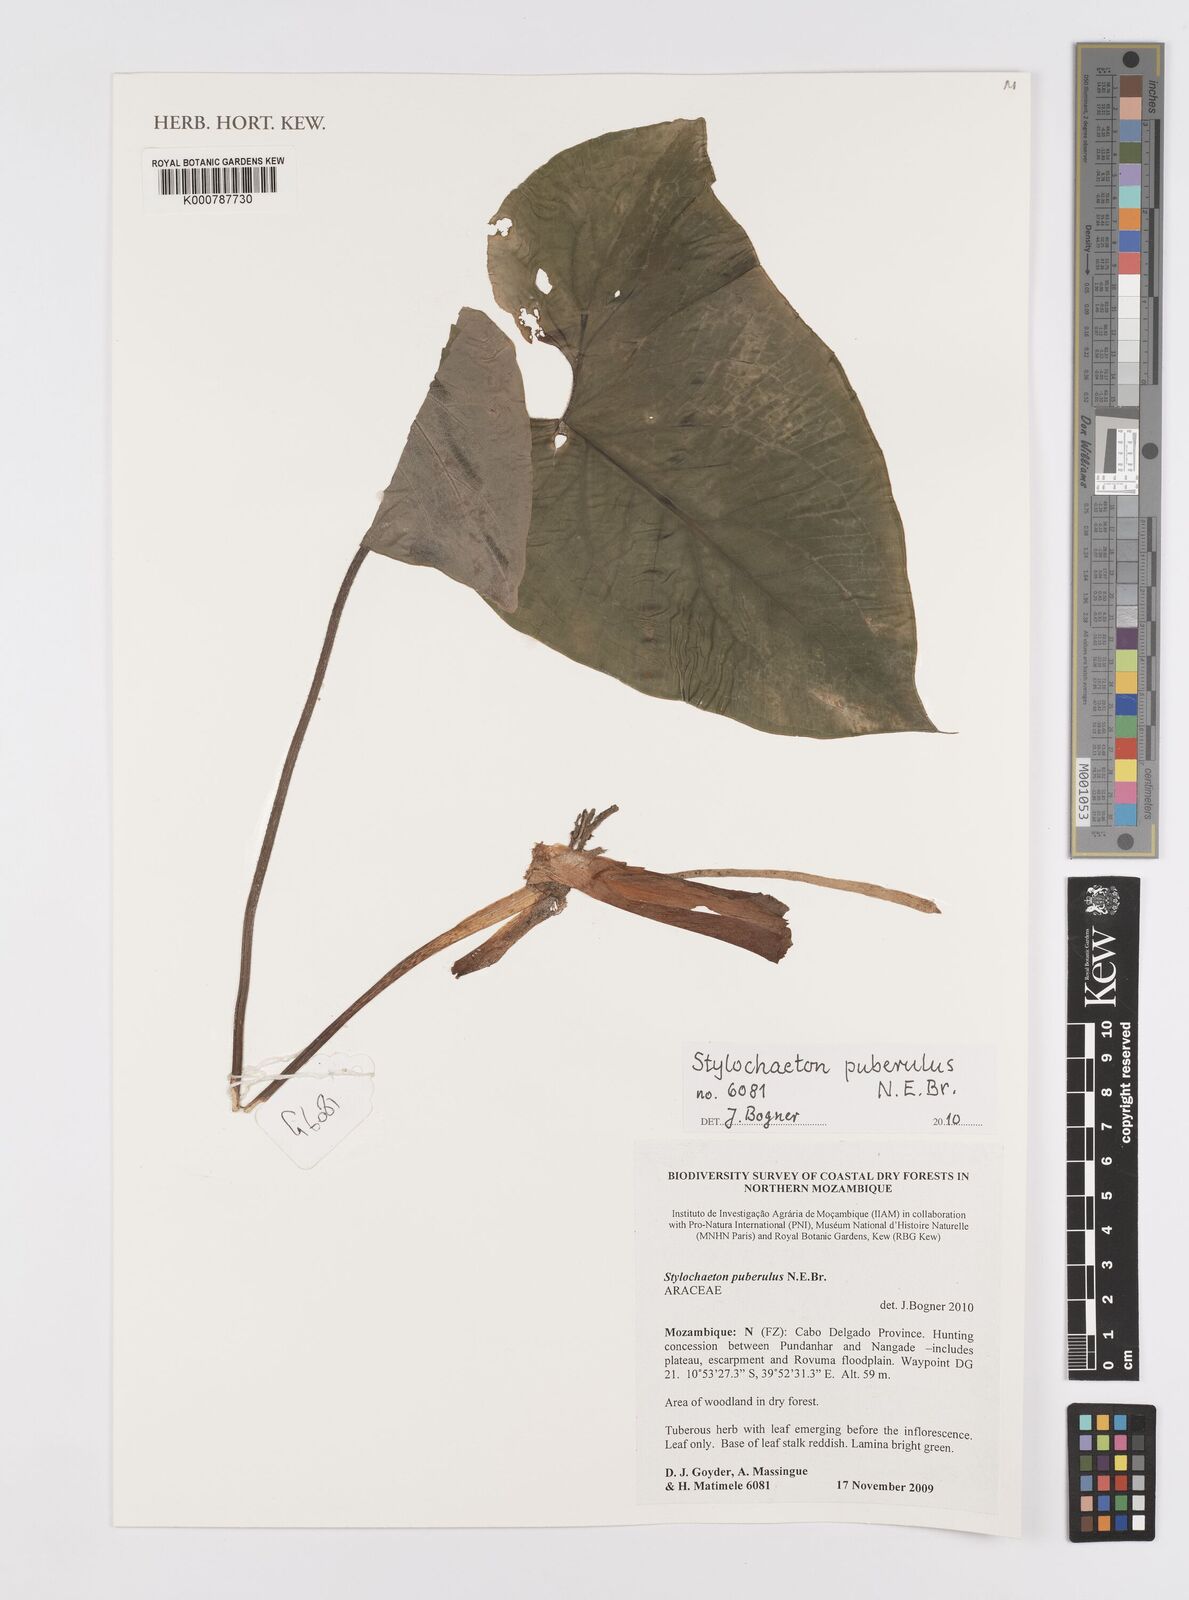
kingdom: Plantae
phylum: Tracheophyta
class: Liliopsida
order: Alismatales
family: Araceae
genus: Stylochaeton
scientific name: Stylochaeton puberulum
